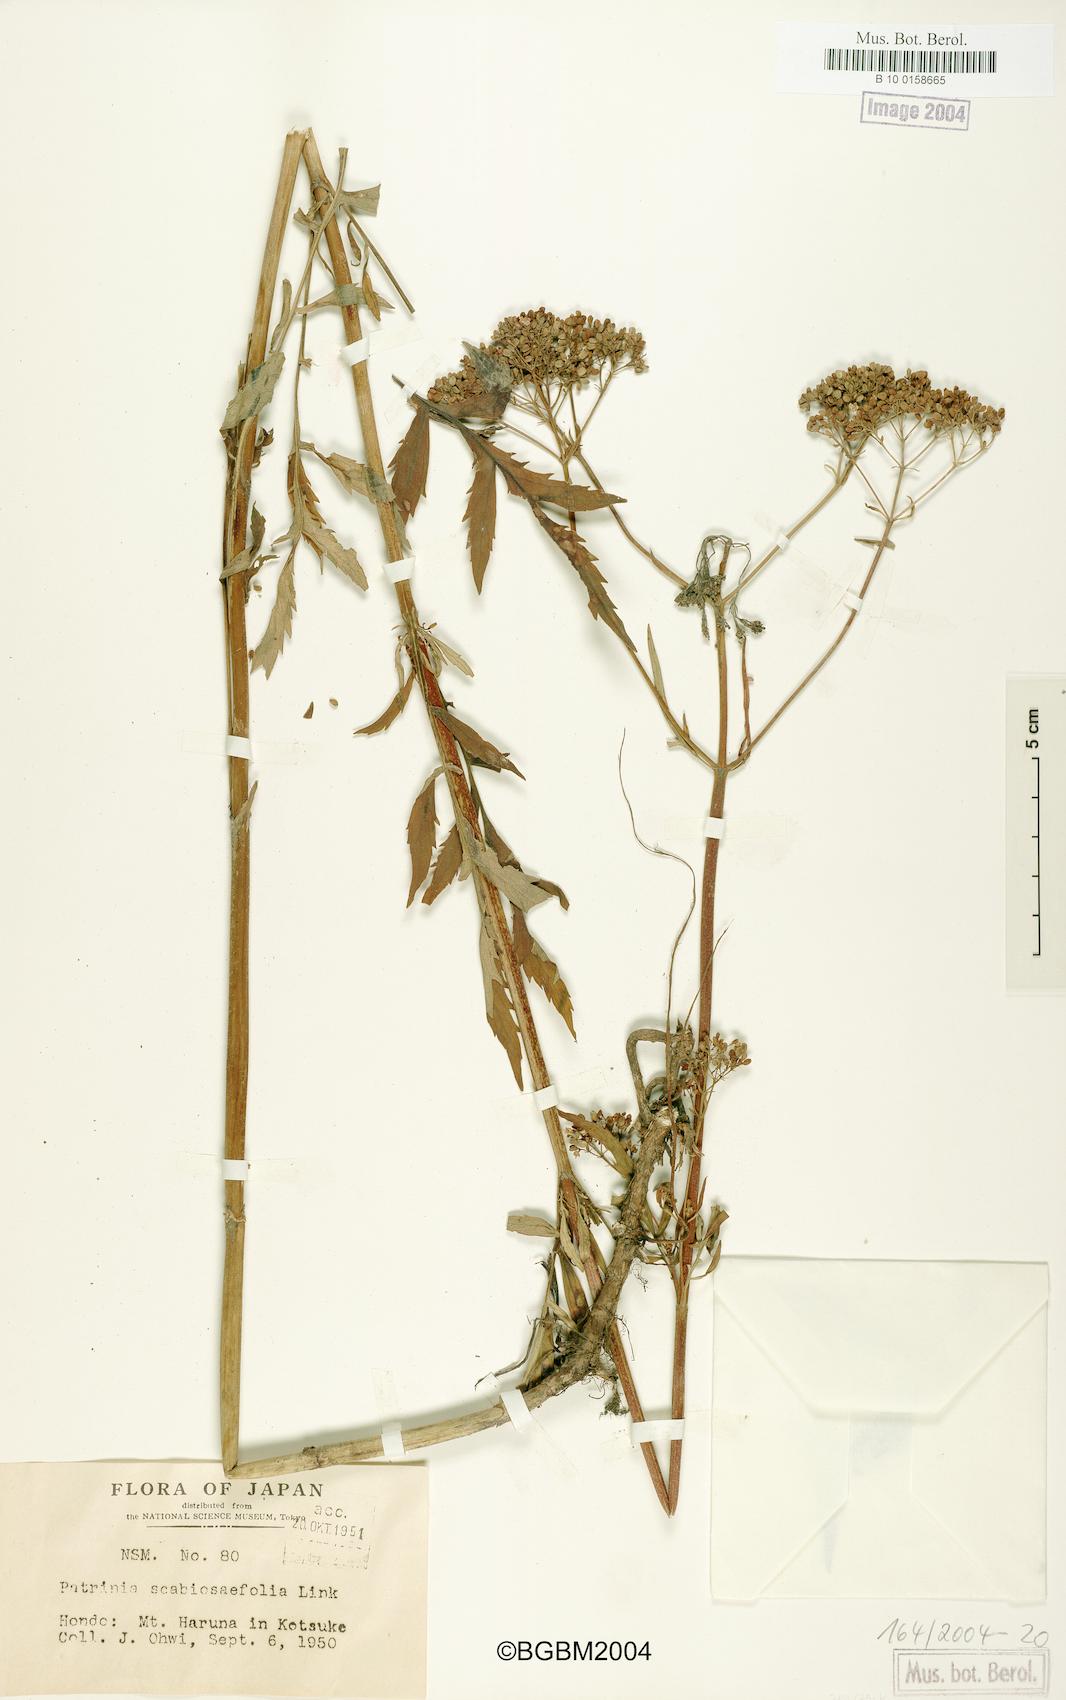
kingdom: Plantae
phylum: Tracheophyta
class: Magnoliopsida
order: Dipsacales
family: Caprifoliaceae
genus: Patrinia
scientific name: Patrinia scabiosifolia
